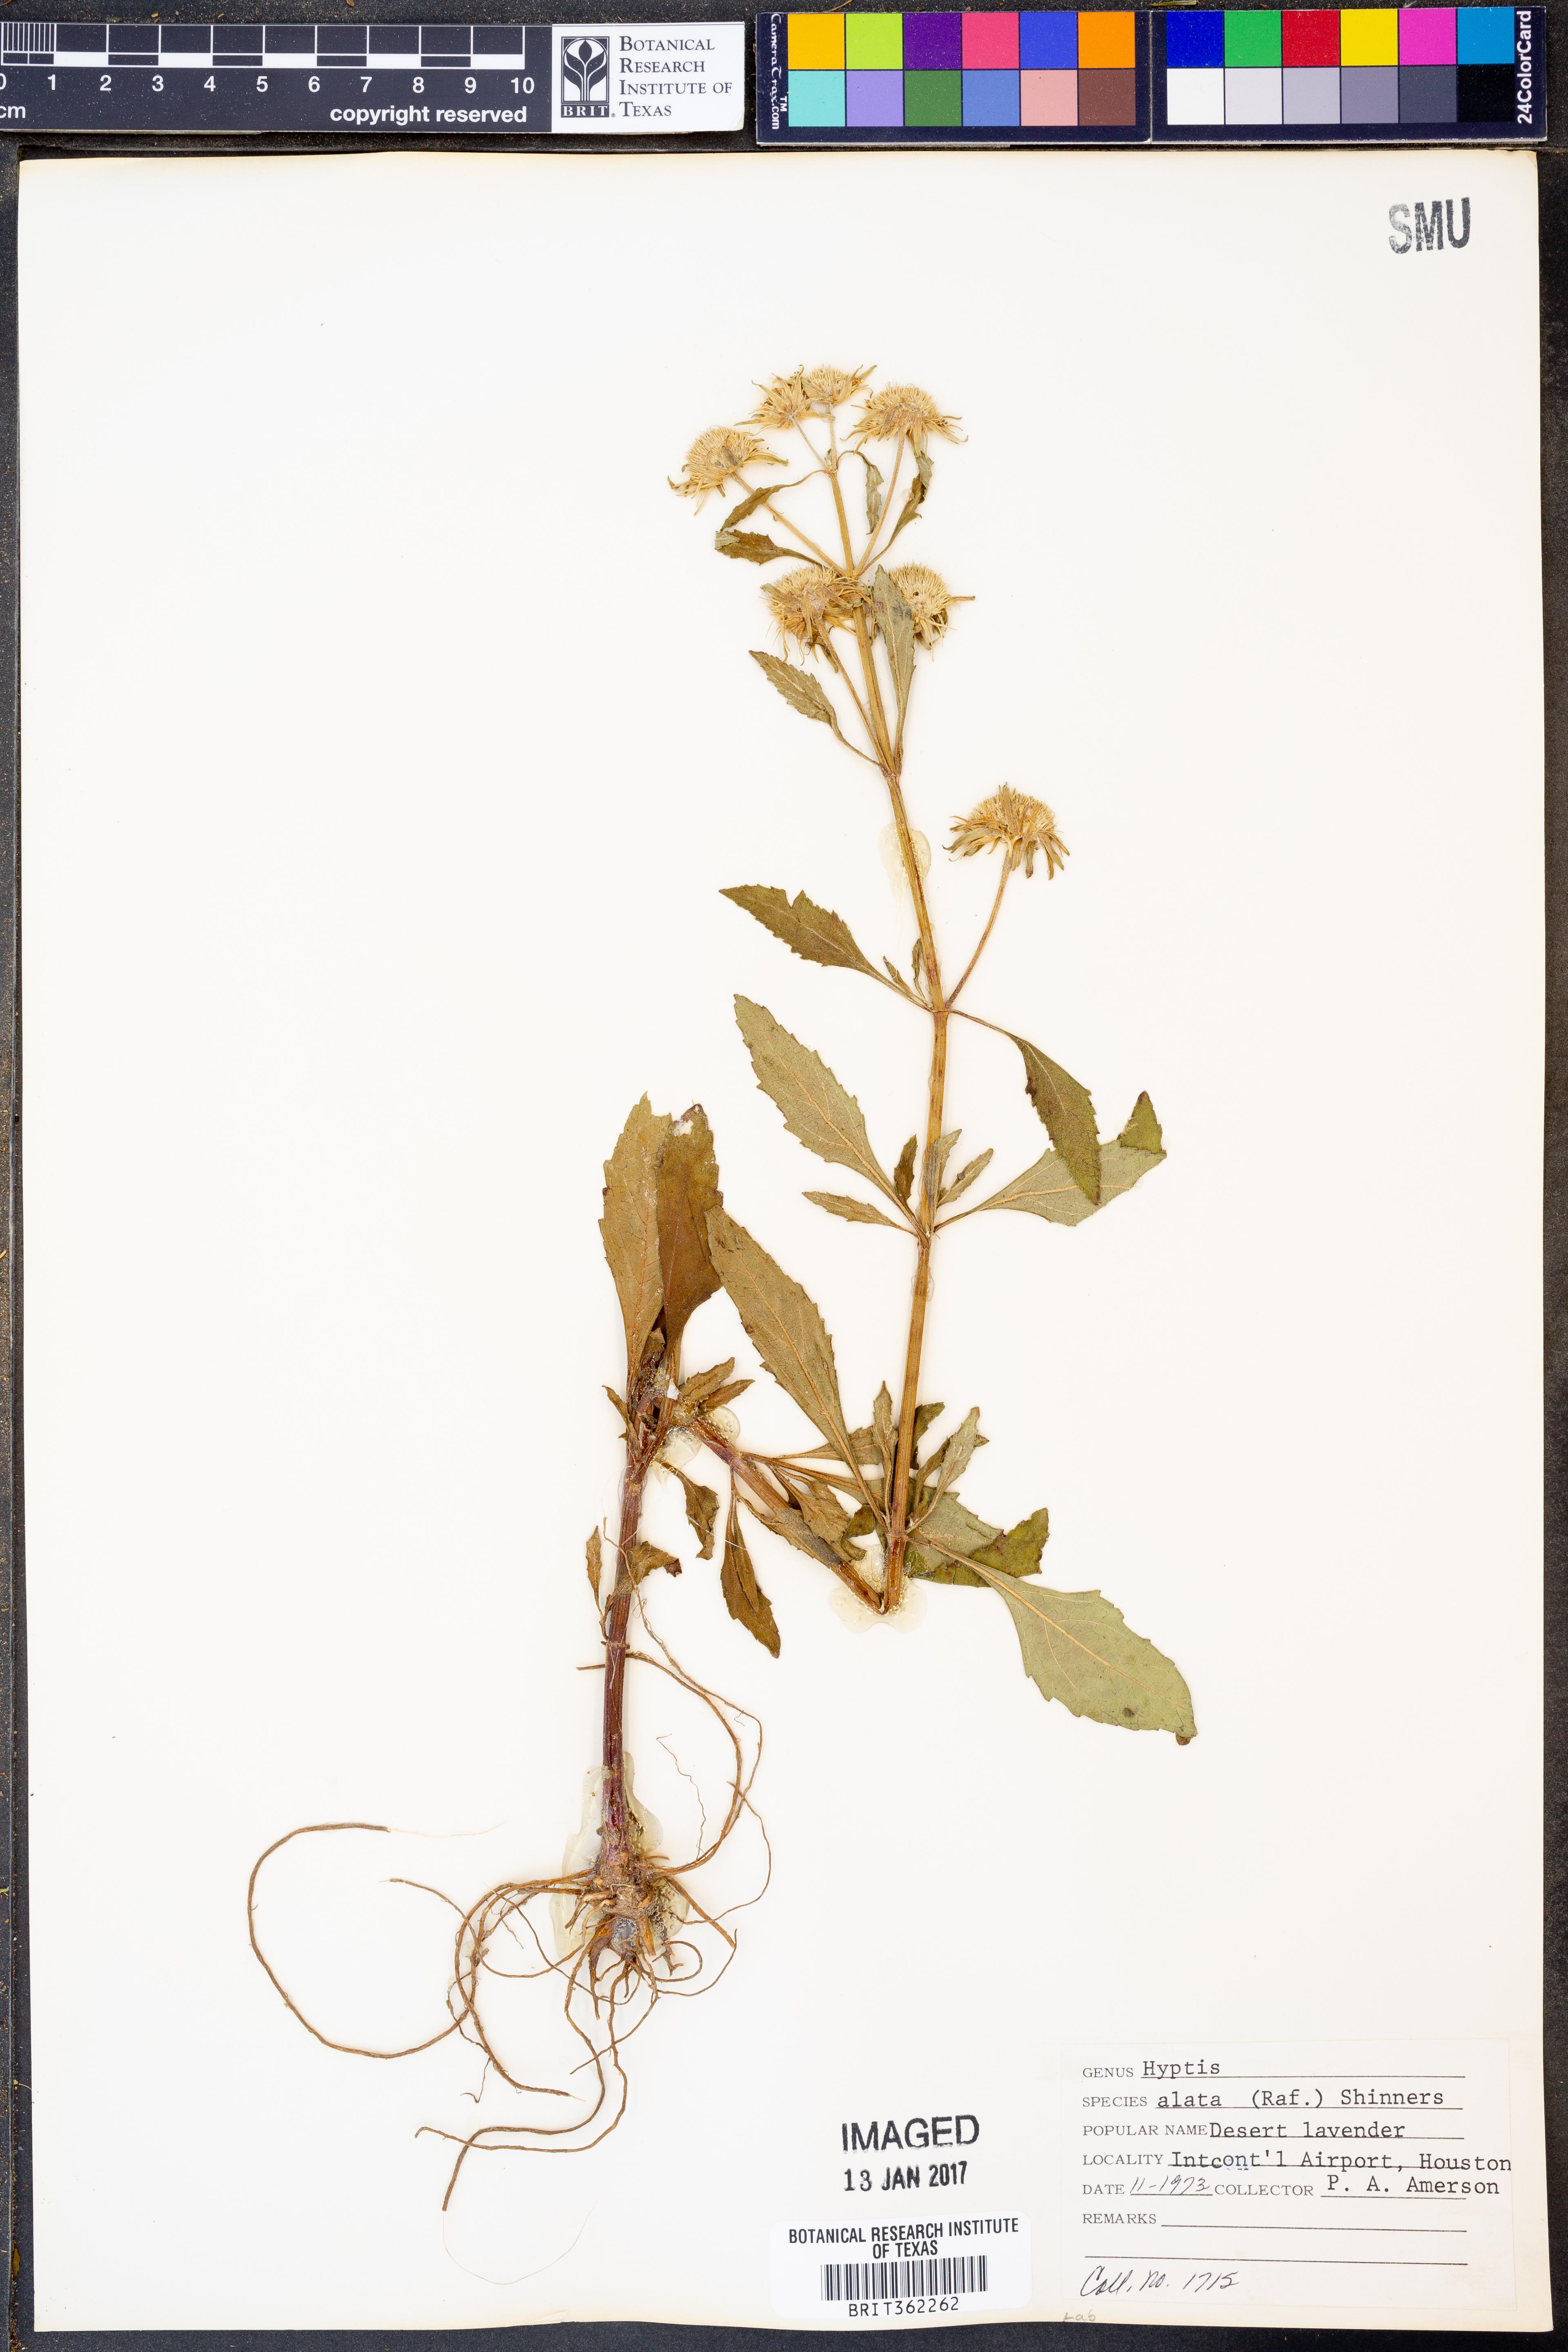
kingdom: Plantae
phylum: Tracheophyta
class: Magnoliopsida
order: Lamiales
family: Lamiaceae
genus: Hyptis
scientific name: Hyptis alata
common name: Cluster bush-mint
